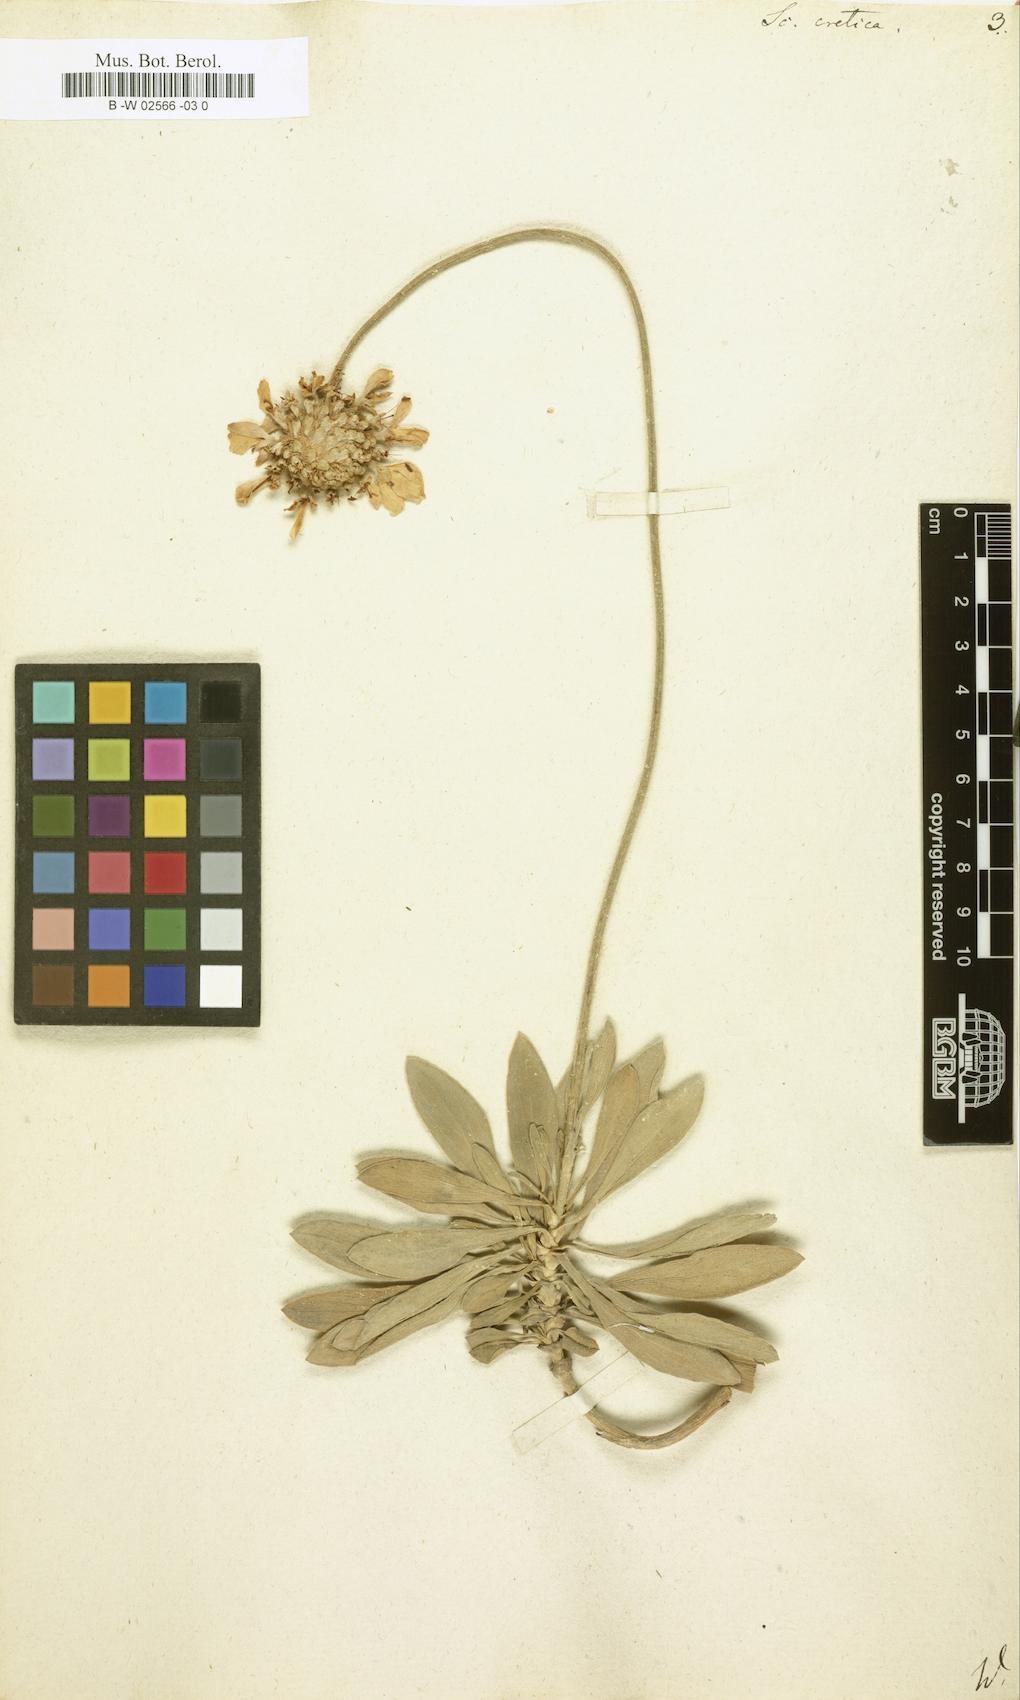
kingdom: Plantae
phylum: Tracheophyta
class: Magnoliopsida
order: Dipsacales
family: Caprifoliaceae
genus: Lomelosia
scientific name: Lomelosia cretica
